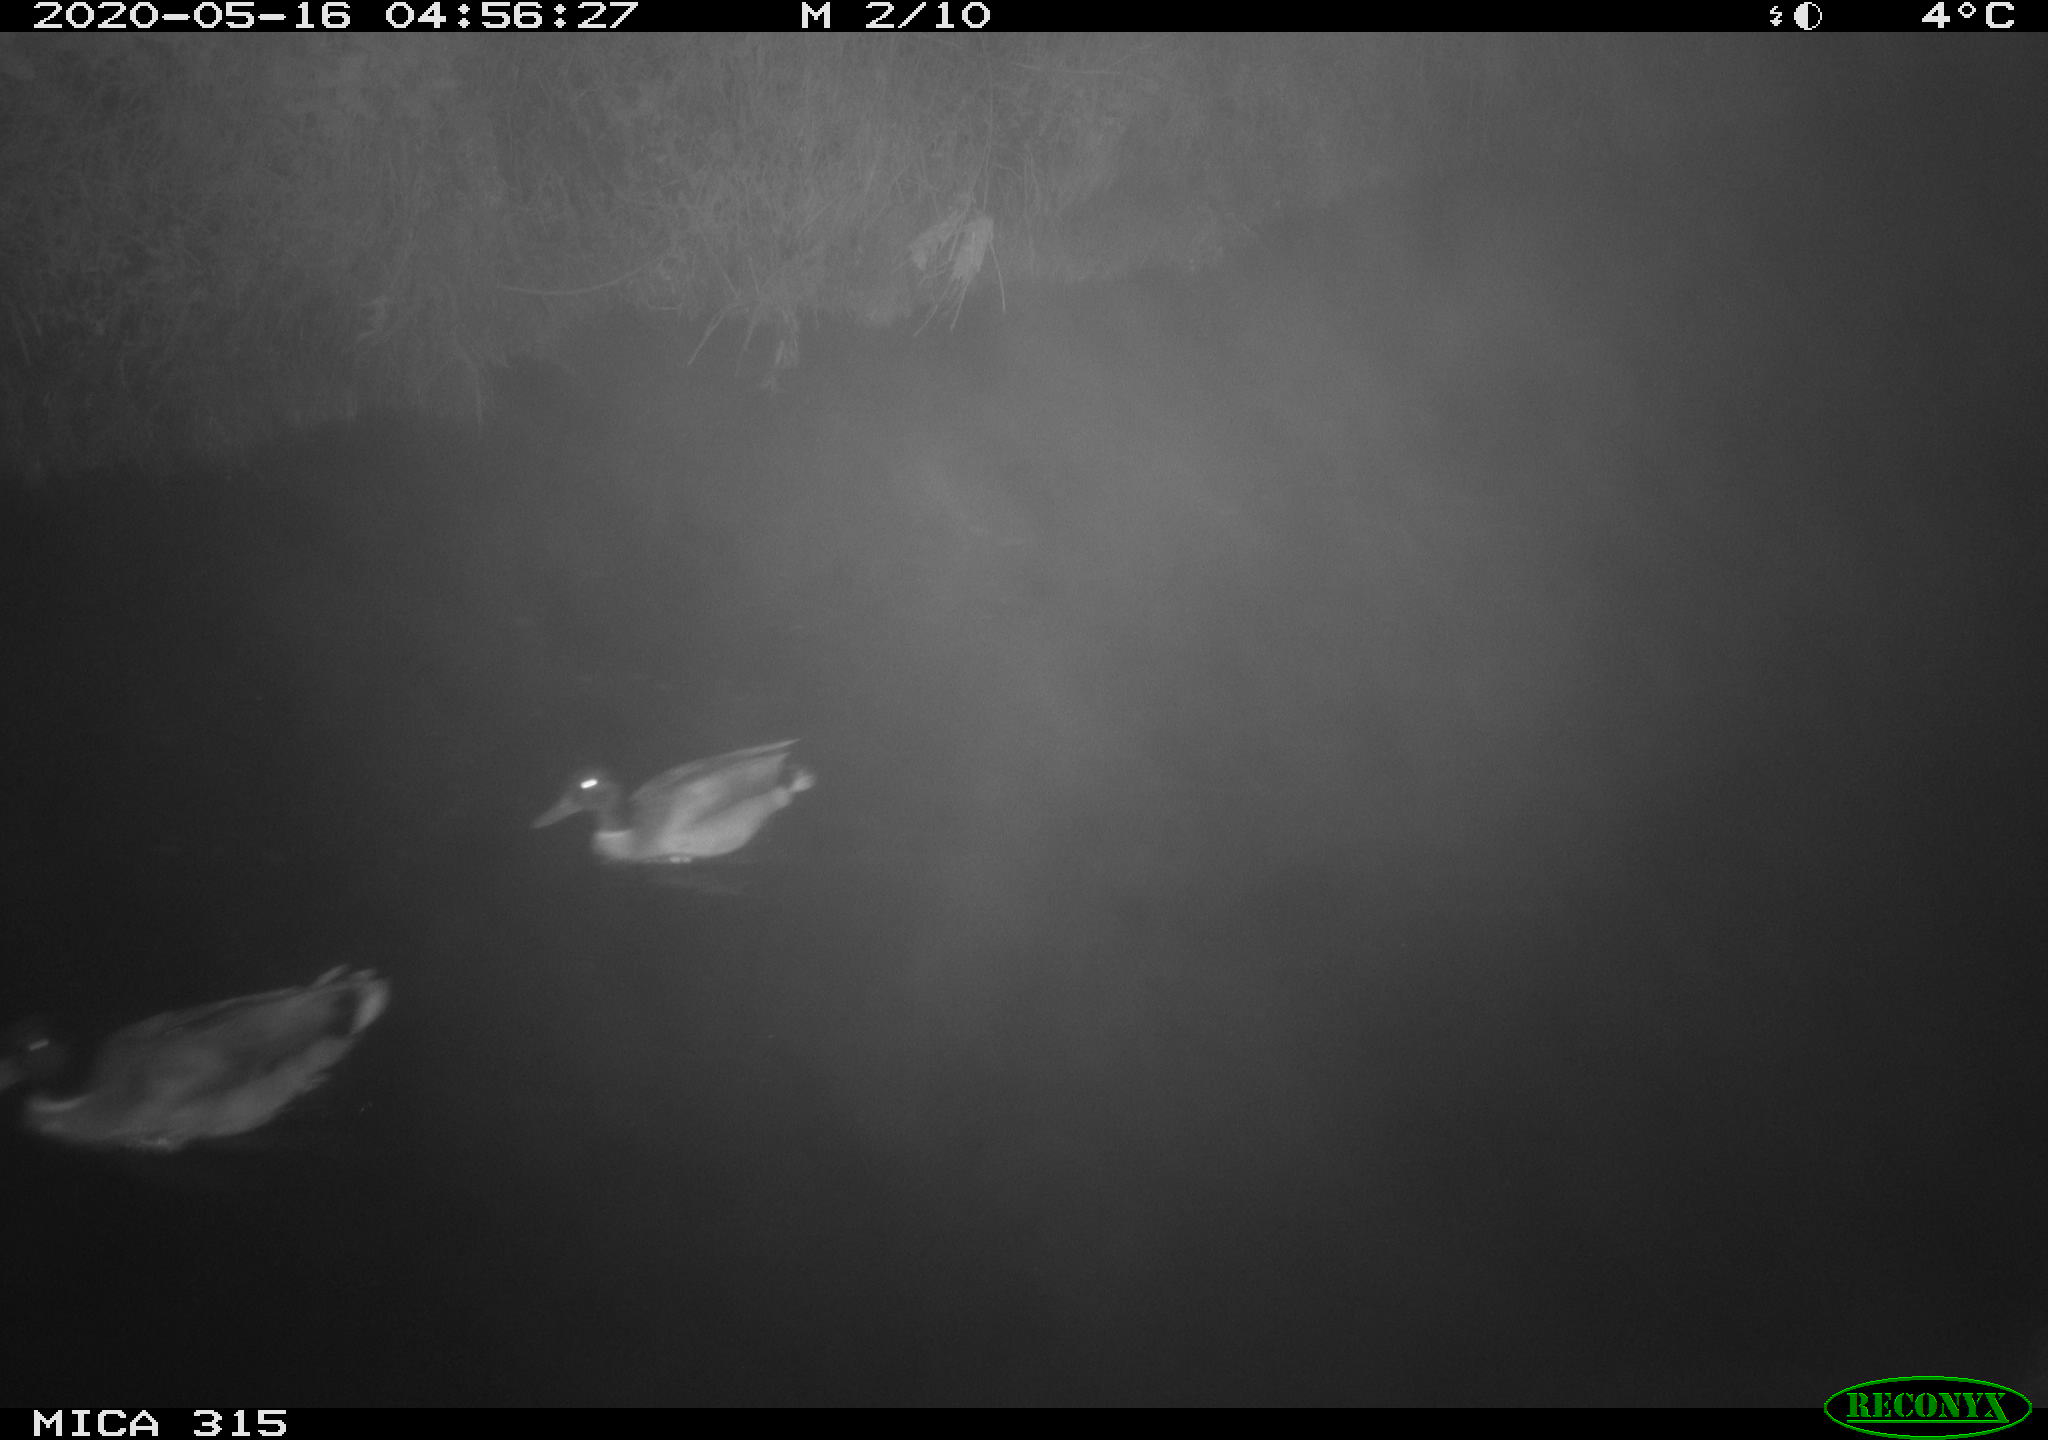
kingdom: Animalia
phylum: Chordata
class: Aves
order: Anseriformes
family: Anatidae
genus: Anas
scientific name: Anas platyrhynchos
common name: Mallard
